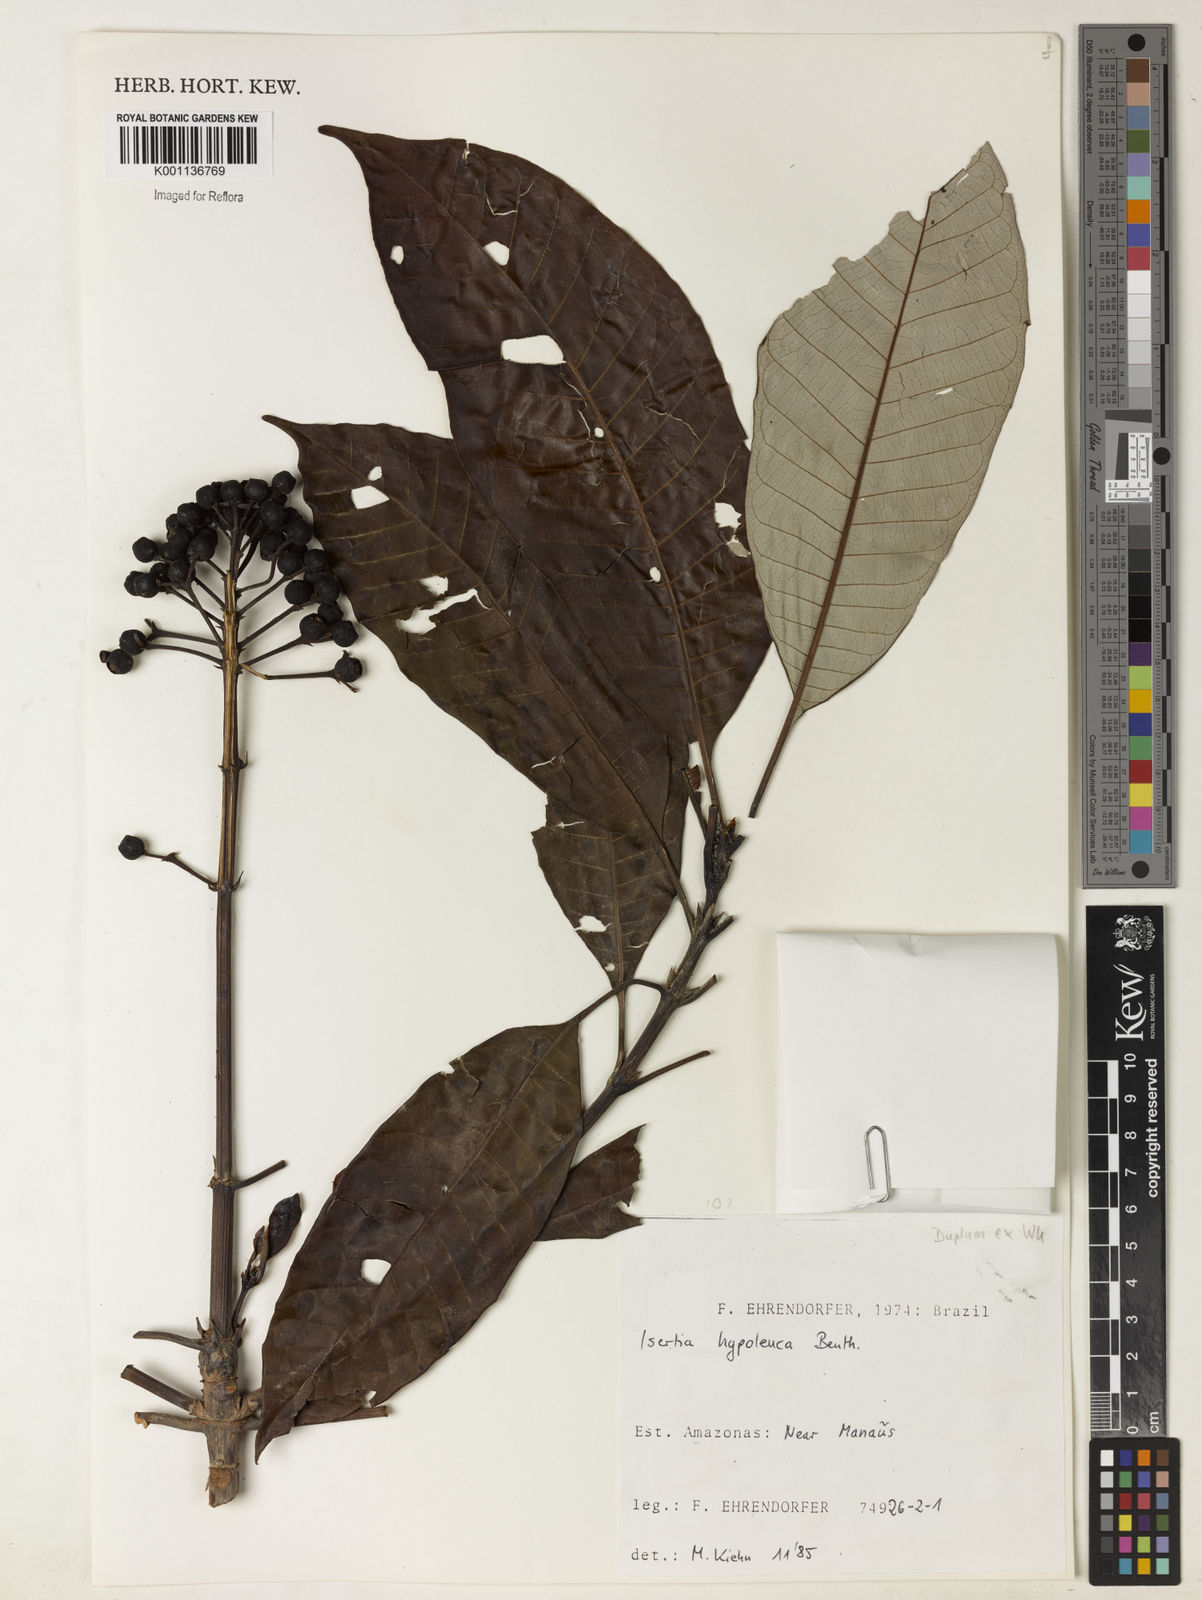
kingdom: Plantae
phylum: Tracheophyta
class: Magnoliopsida
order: Gentianales
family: Rubiaceae
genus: Isertia
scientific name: Isertia hypoleuca
